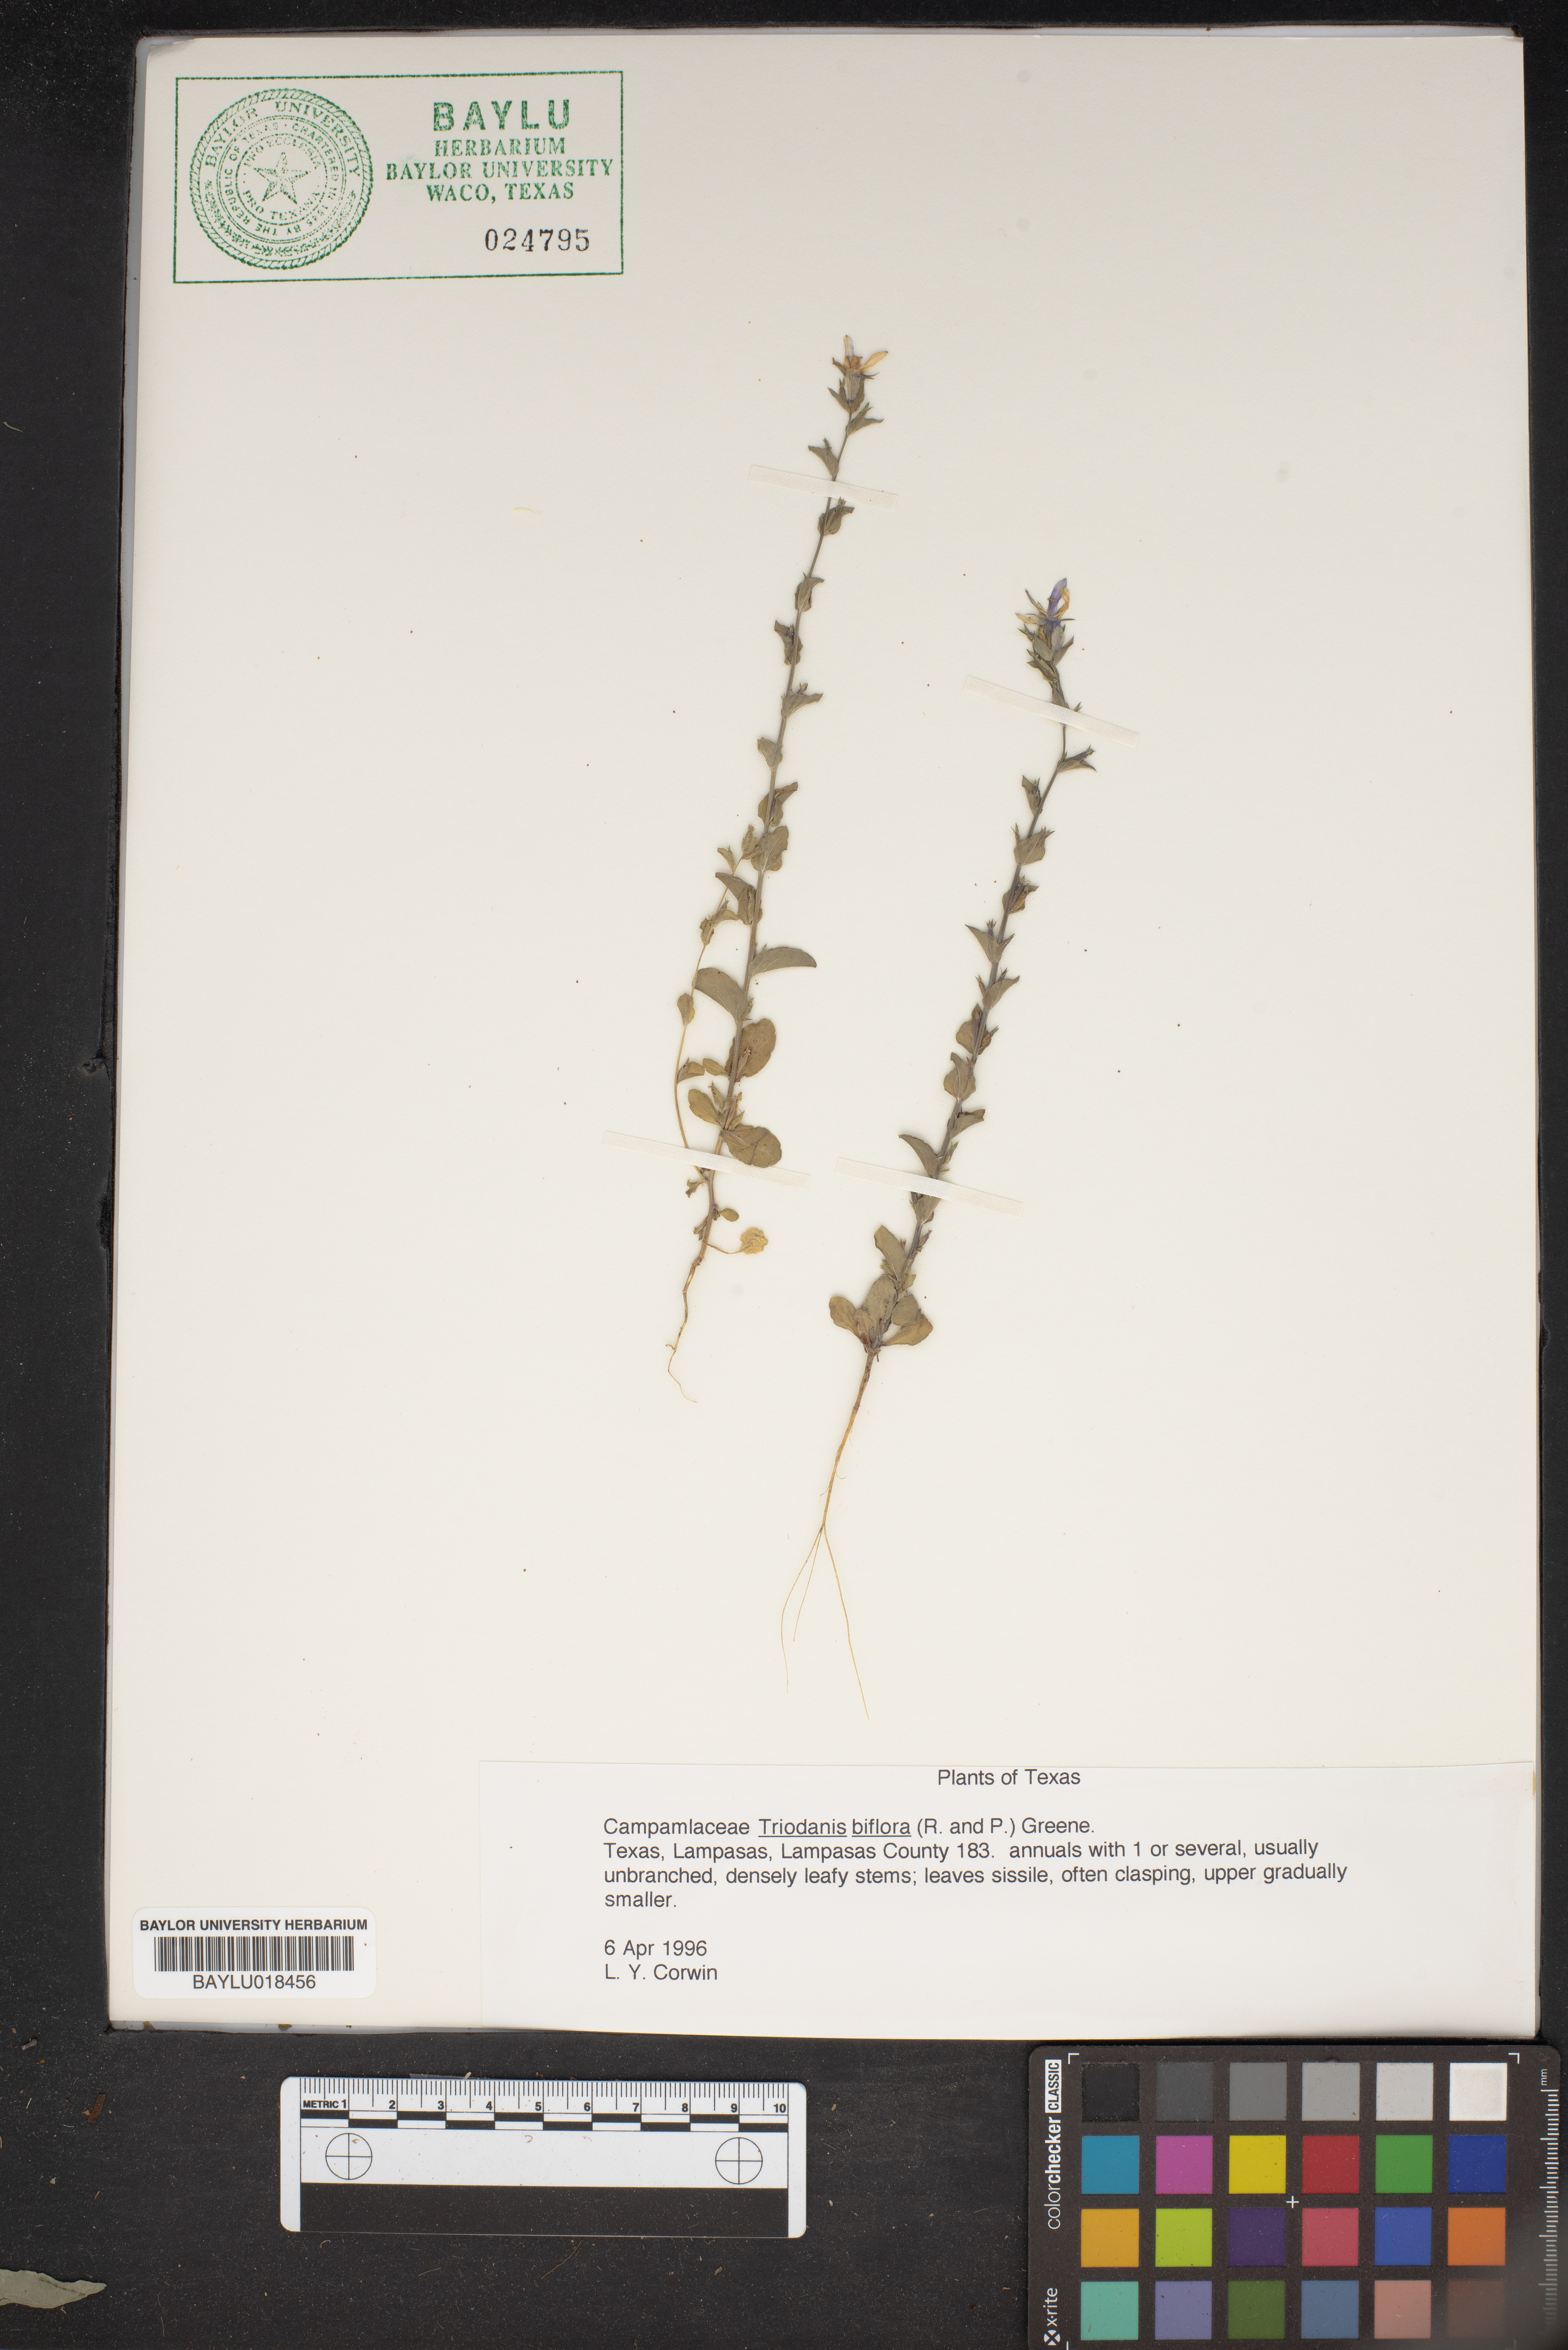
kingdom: Plantae
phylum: Tracheophyta
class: Magnoliopsida
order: Asterales
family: Campanulaceae
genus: Triodanis
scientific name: Triodanis perfoliata
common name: Clasping venus' looking-glass
